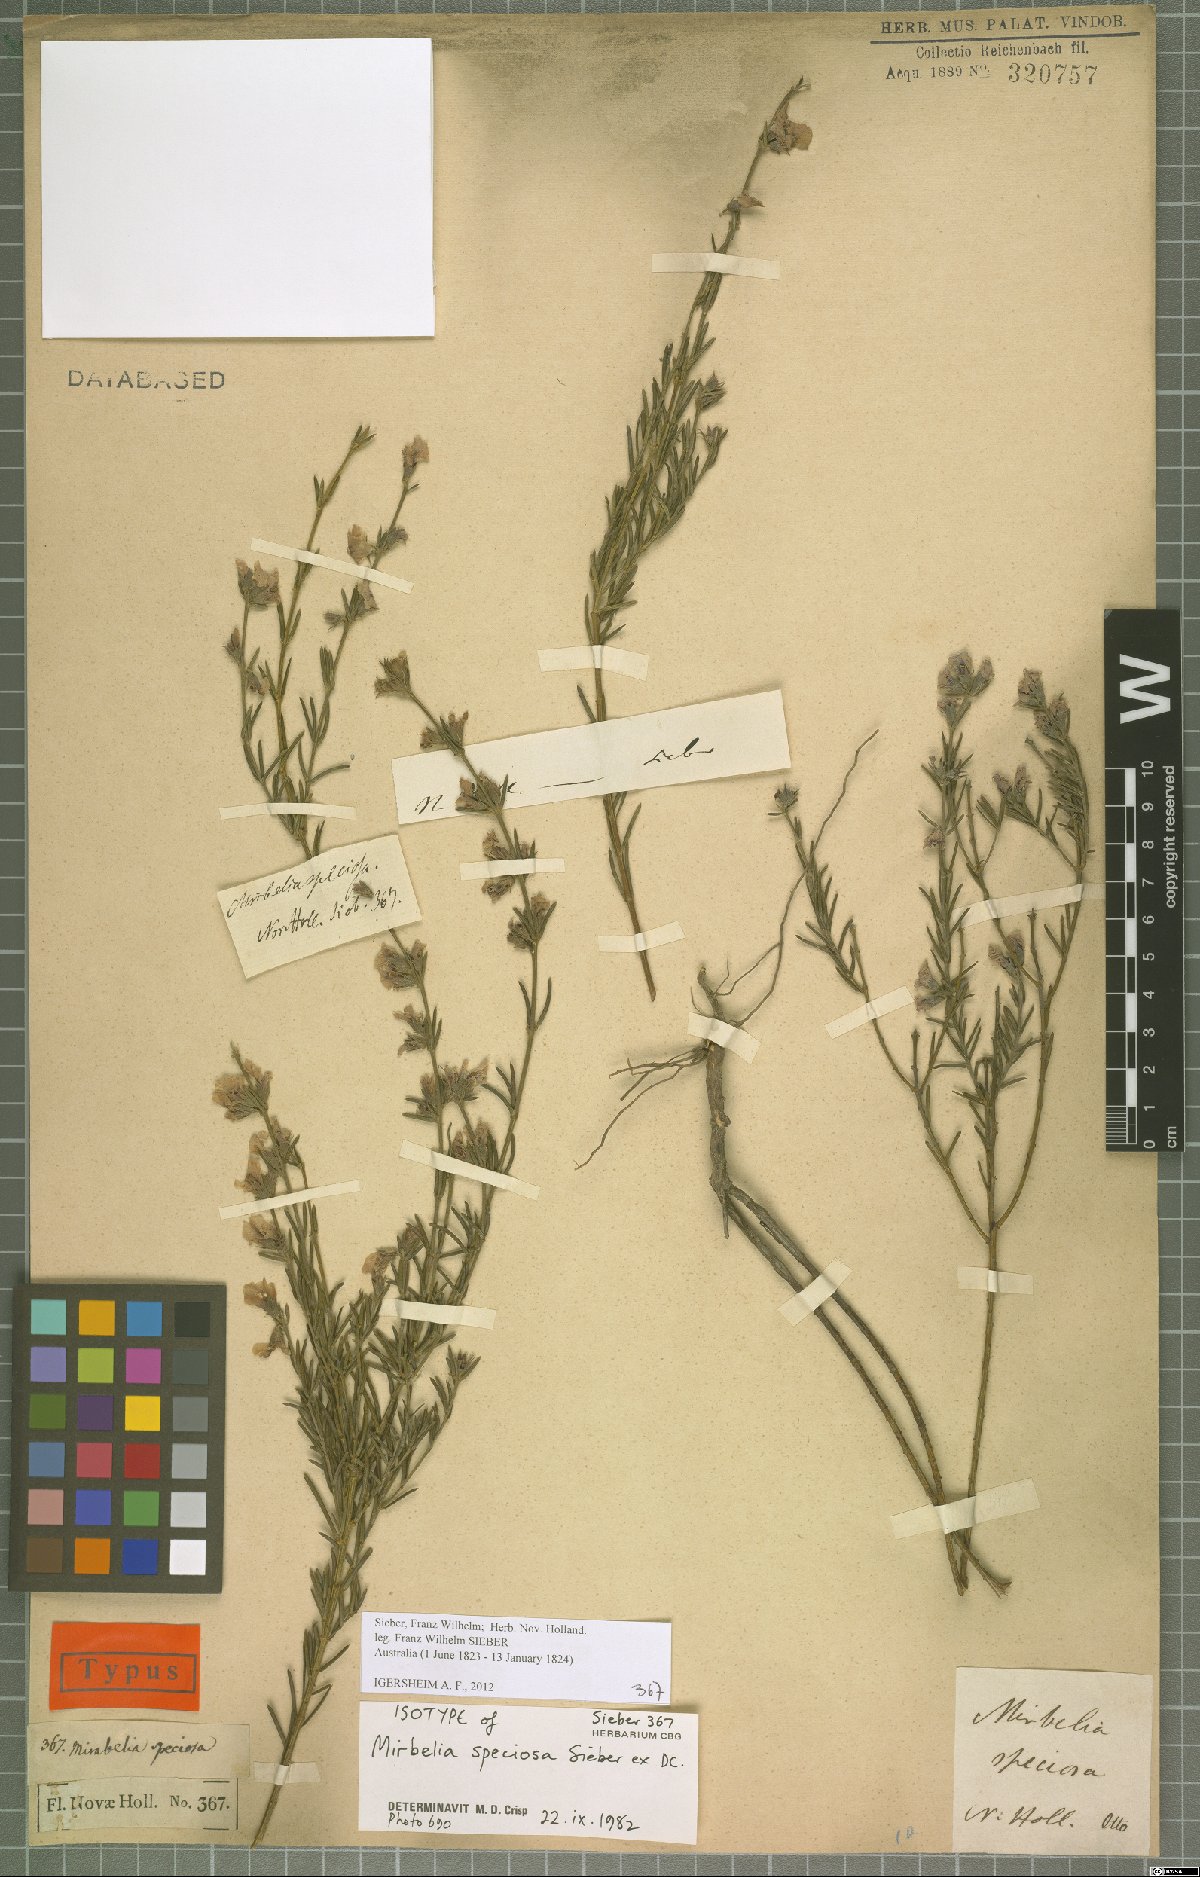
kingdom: Plantae
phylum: Tracheophyta
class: Magnoliopsida
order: Fabales
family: Fabaceae
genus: Mirbelia
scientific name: Mirbelia speciosa
